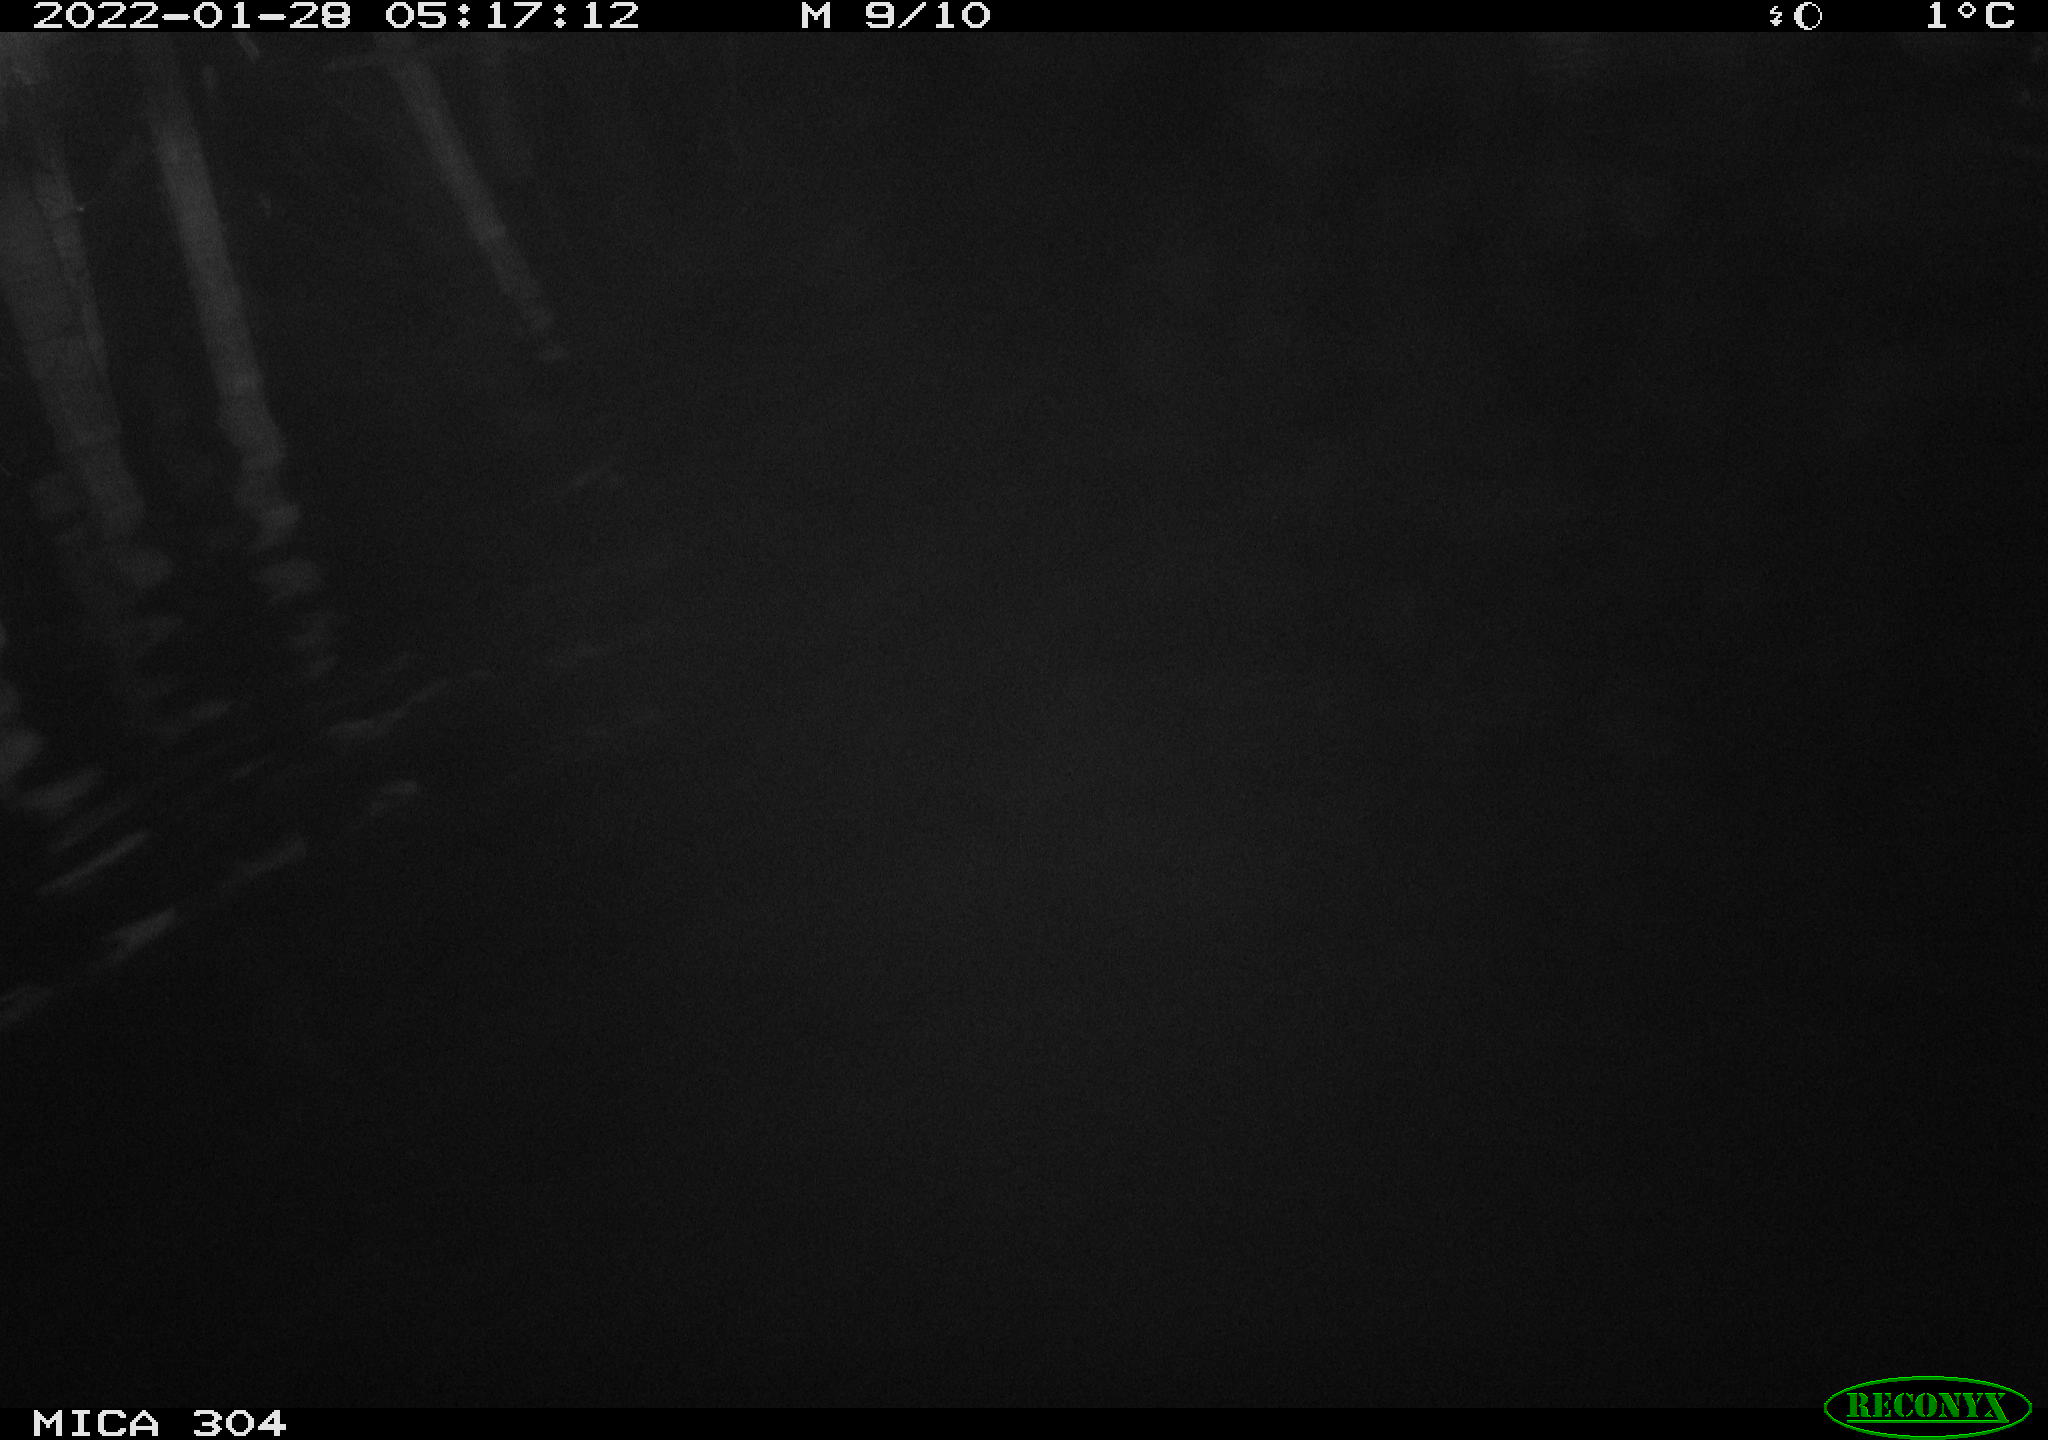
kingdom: Animalia
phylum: Chordata
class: Aves
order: Anseriformes
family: Anatidae
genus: Anas
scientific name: Anas
